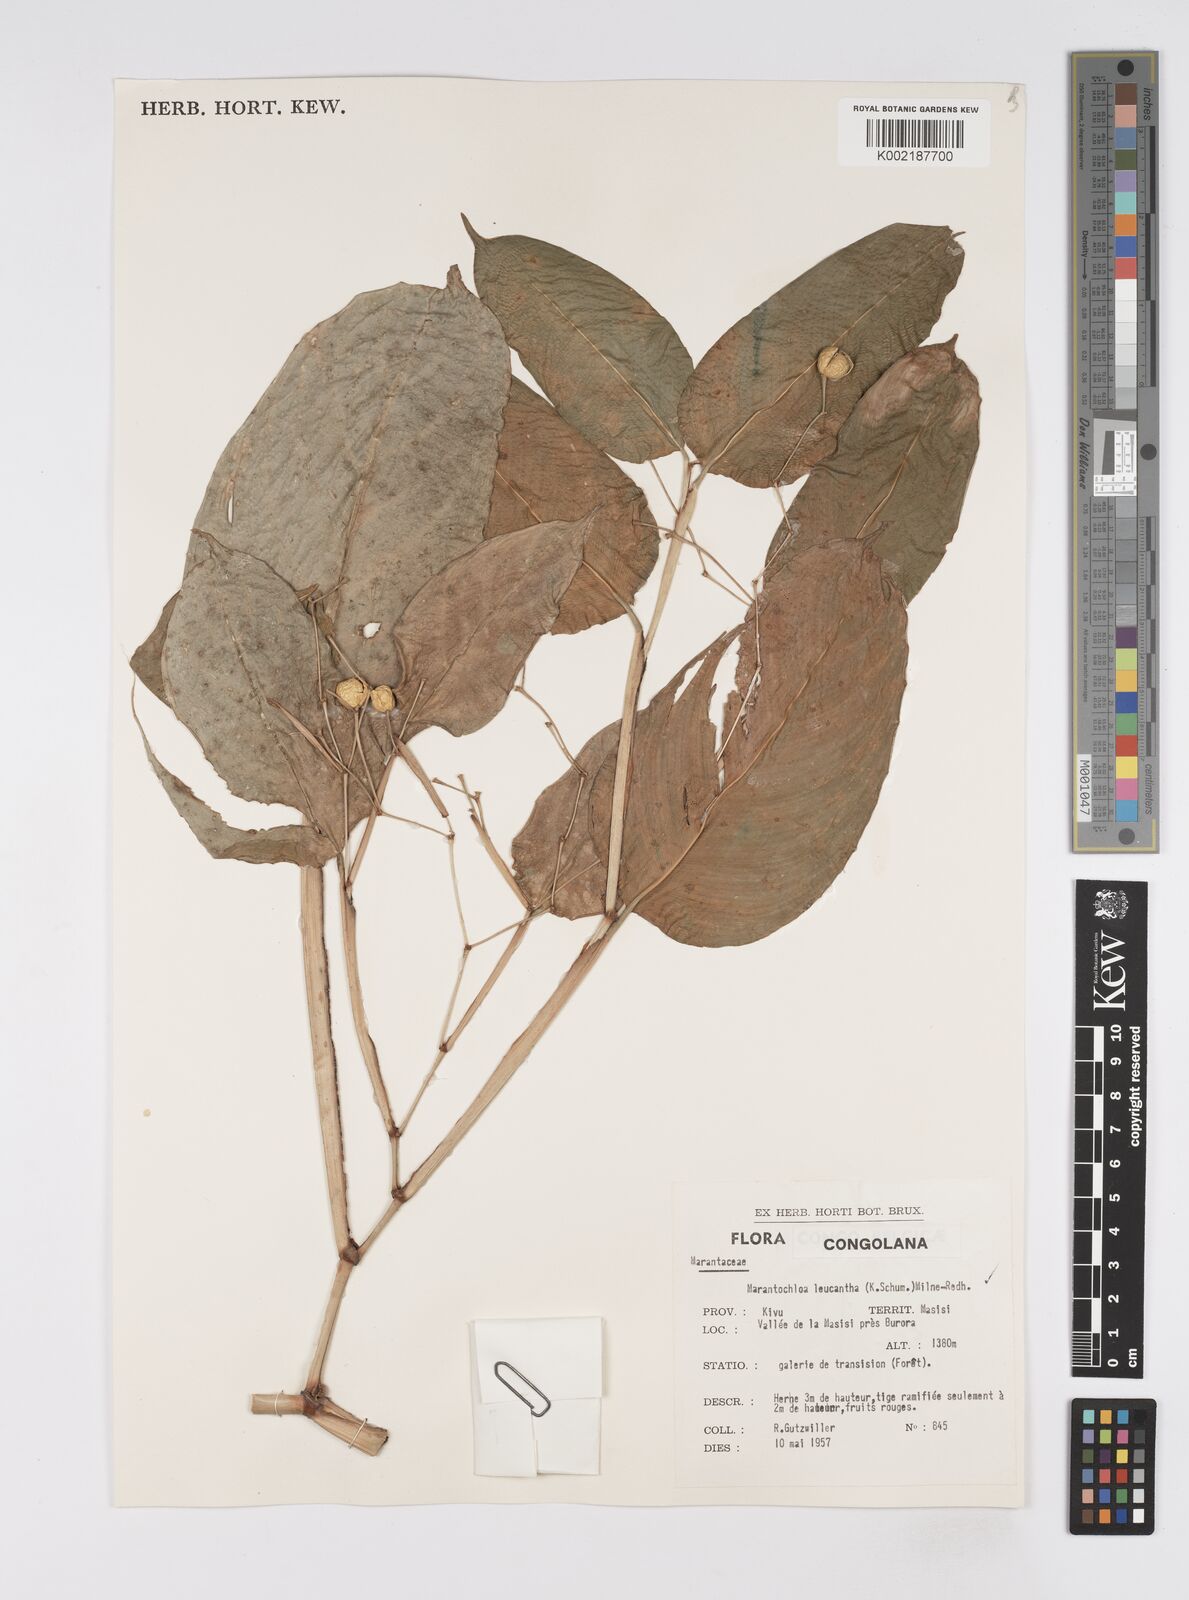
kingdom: Plantae
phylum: Tracheophyta
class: Liliopsida
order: Zingiberales
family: Marantaceae
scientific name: Marantaceae
